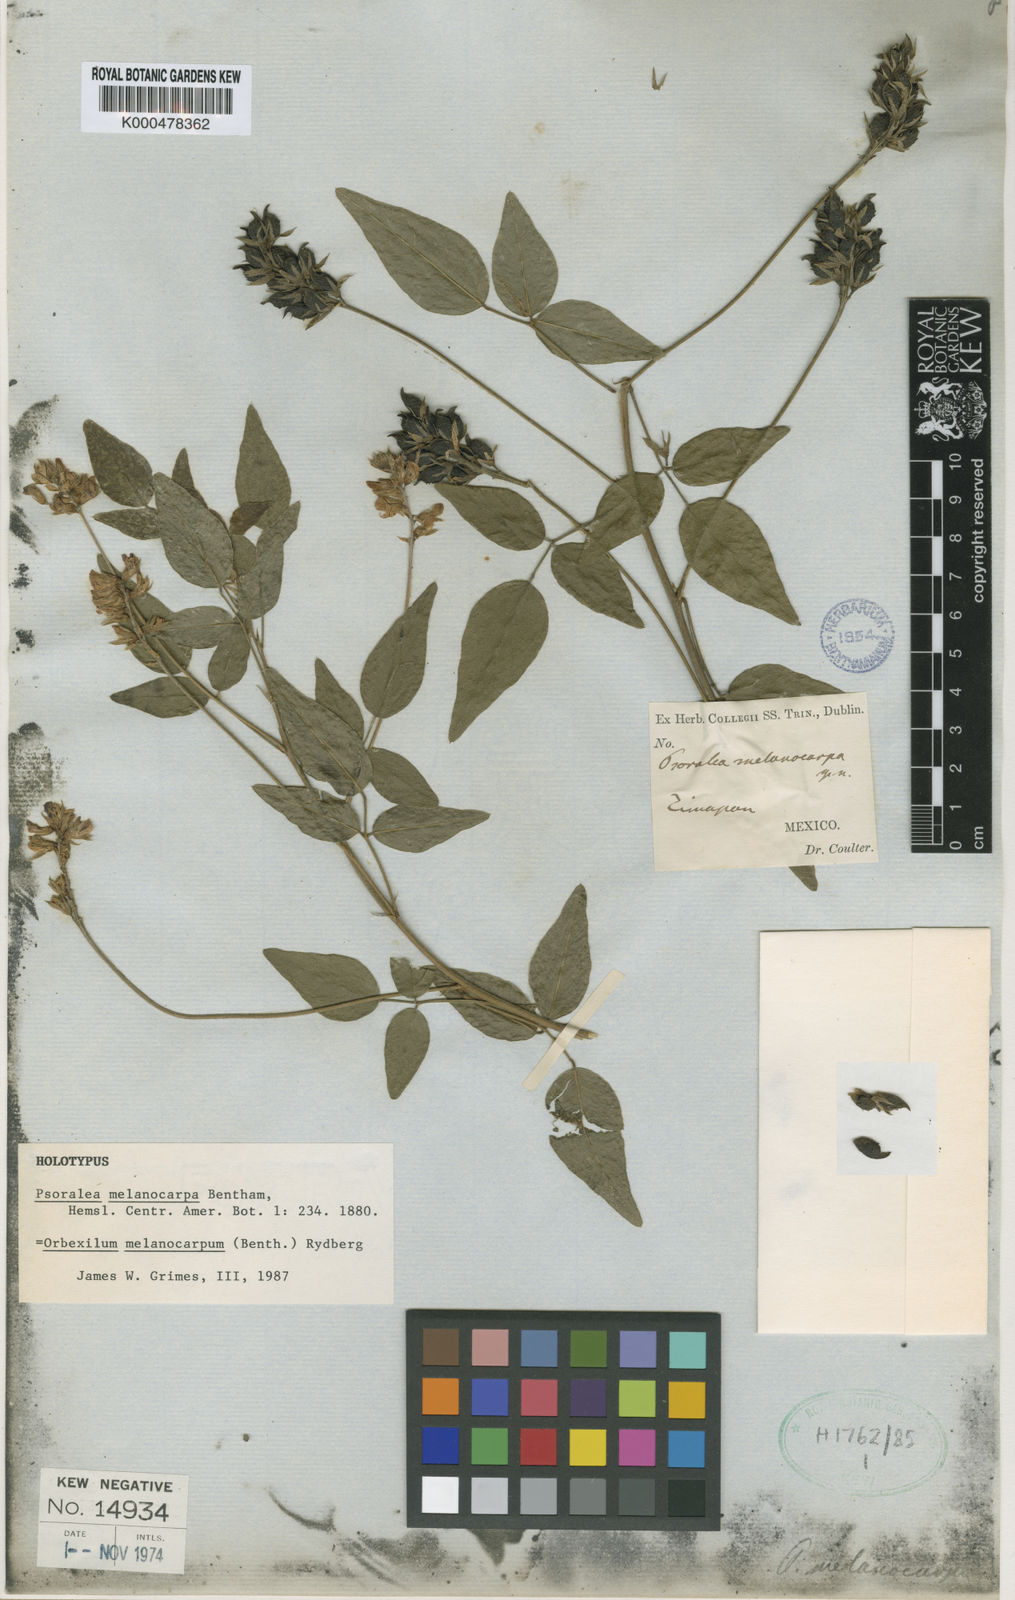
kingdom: Plantae
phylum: Tracheophyta
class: Magnoliopsida
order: Fabales
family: Fabaceae
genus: Orbexilum
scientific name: Orbexilum melanocarpum
